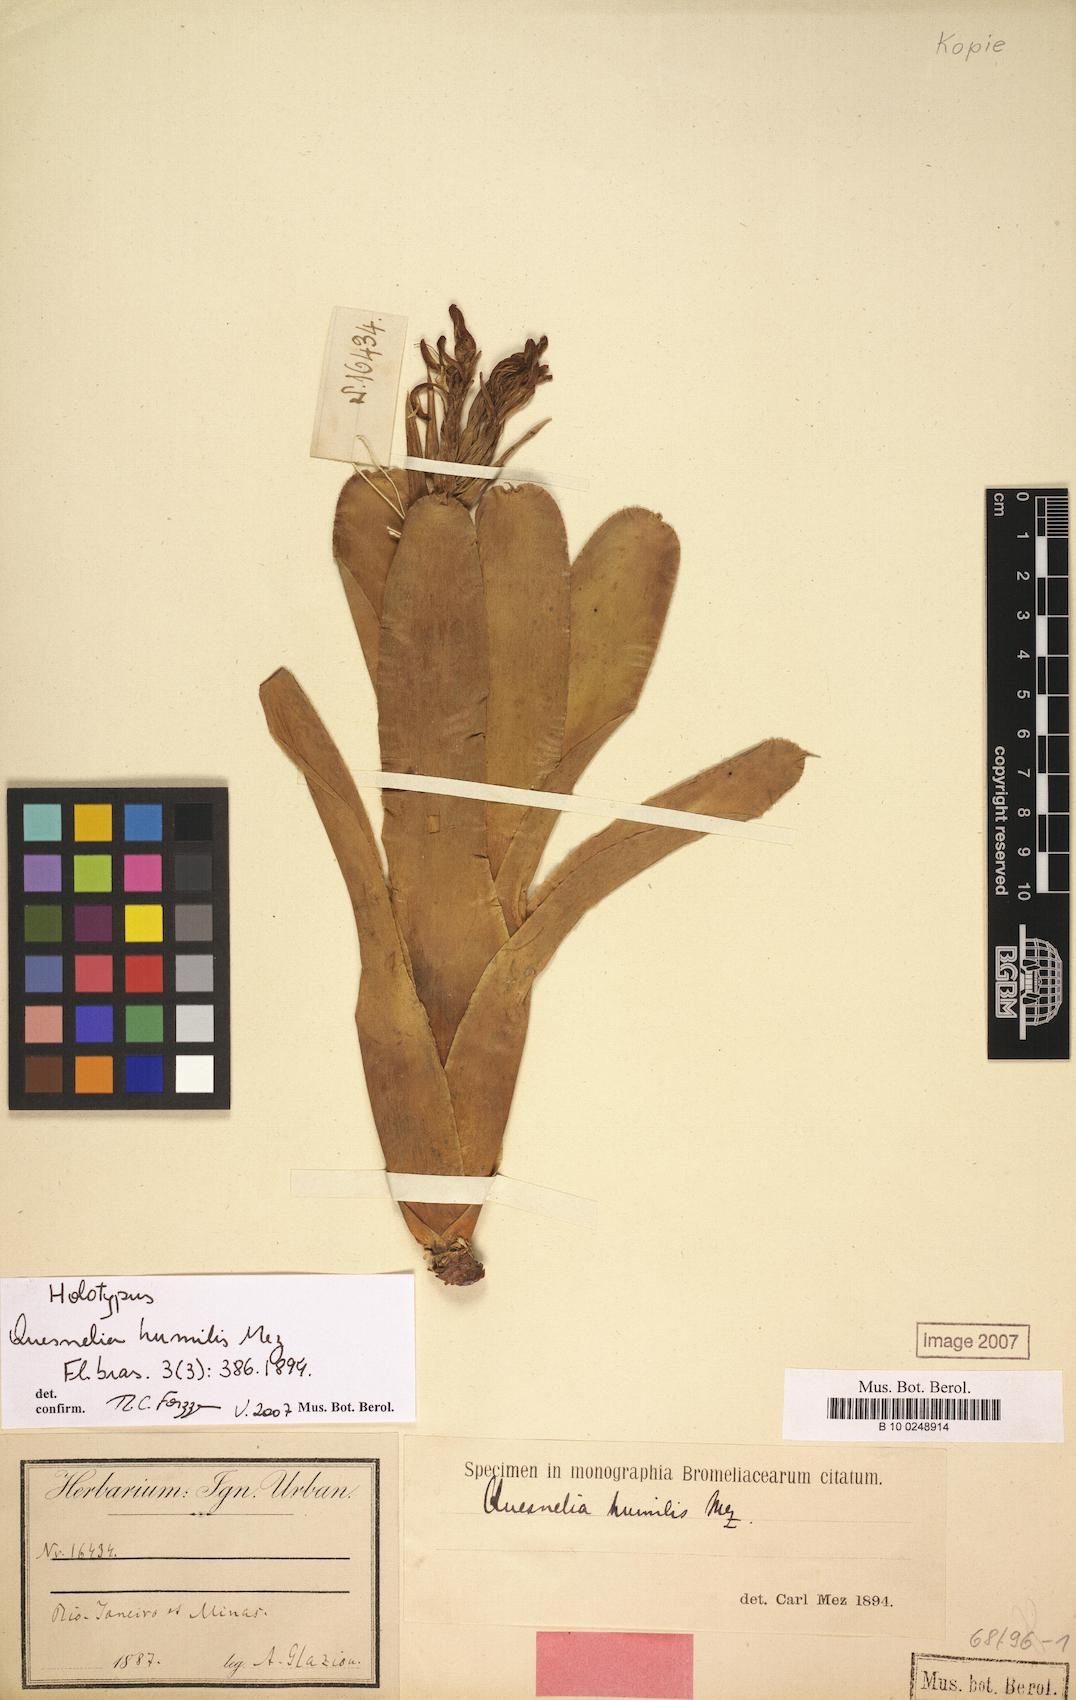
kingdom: Plantae
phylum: Tracheophyta
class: Liliopsida
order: Poales
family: Bromeliaceae
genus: Quesnelia
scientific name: Quesnelia humilis
